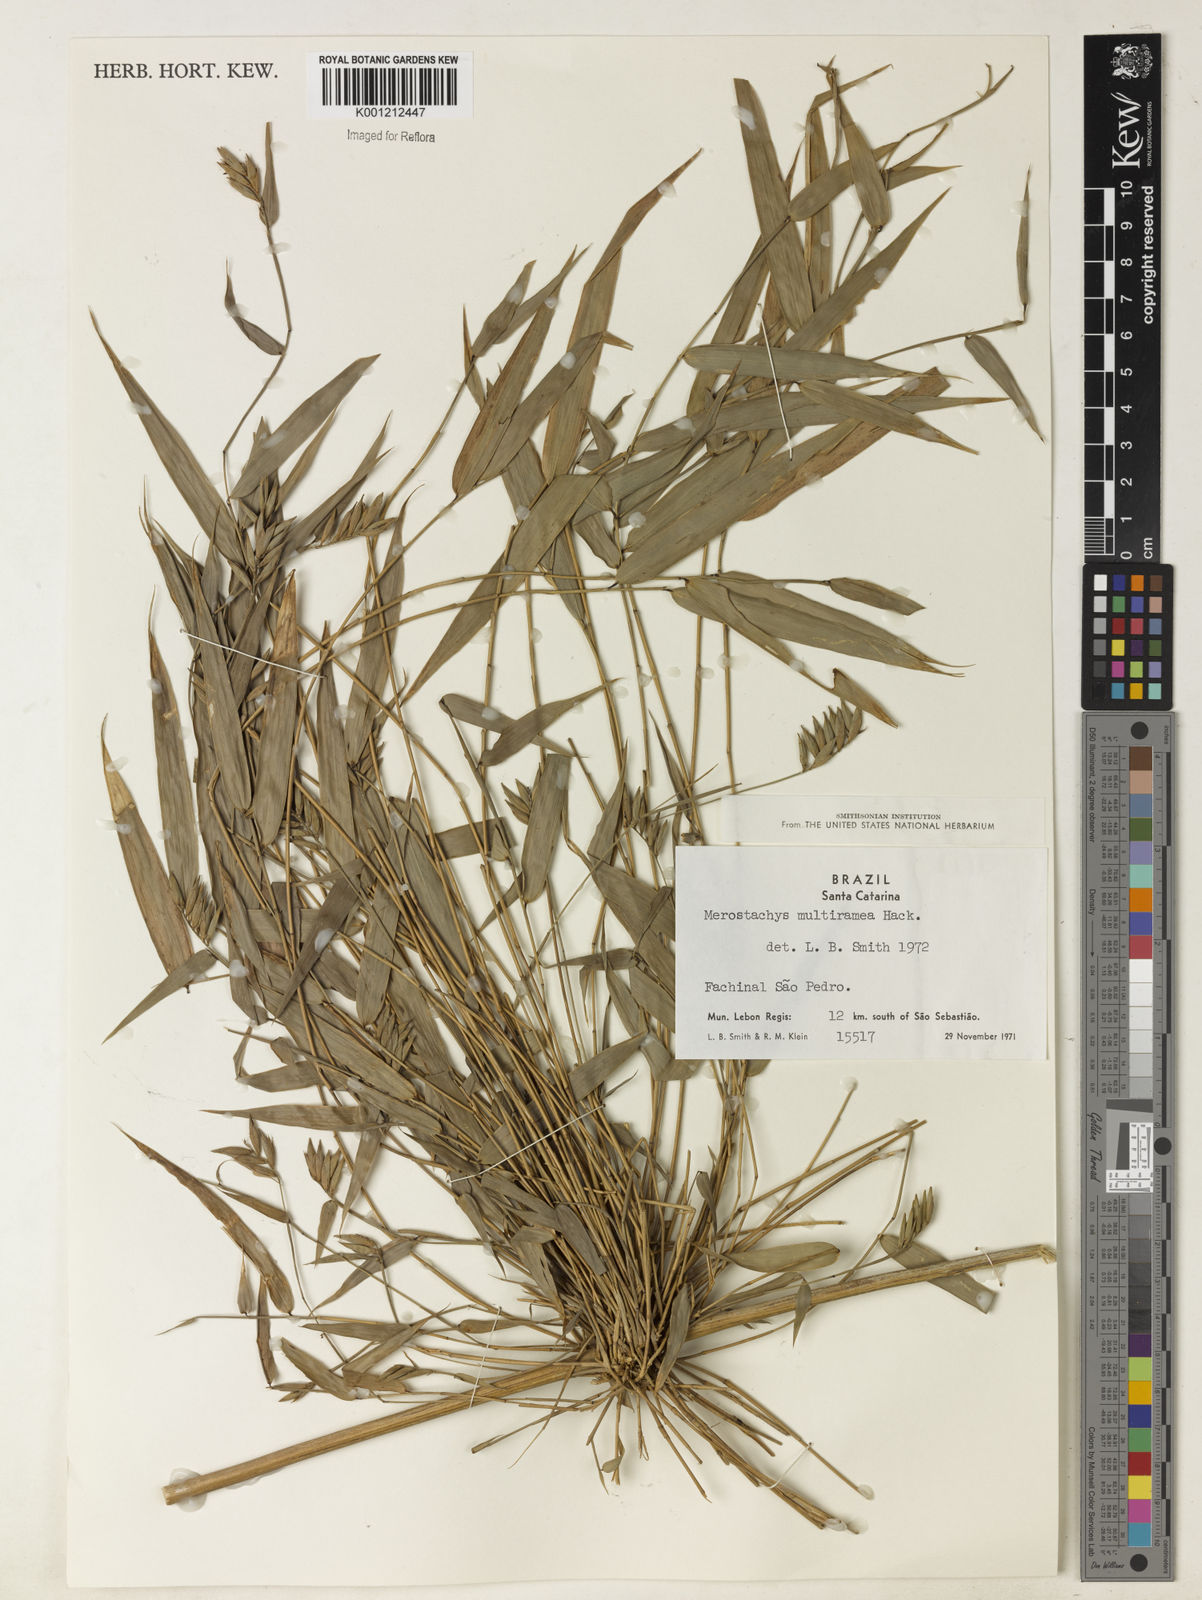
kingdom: Plantae
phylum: Tracheophyta
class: Liliopsida
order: Poales
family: Poaceae
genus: Merostachys
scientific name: Merostachys multiramea
